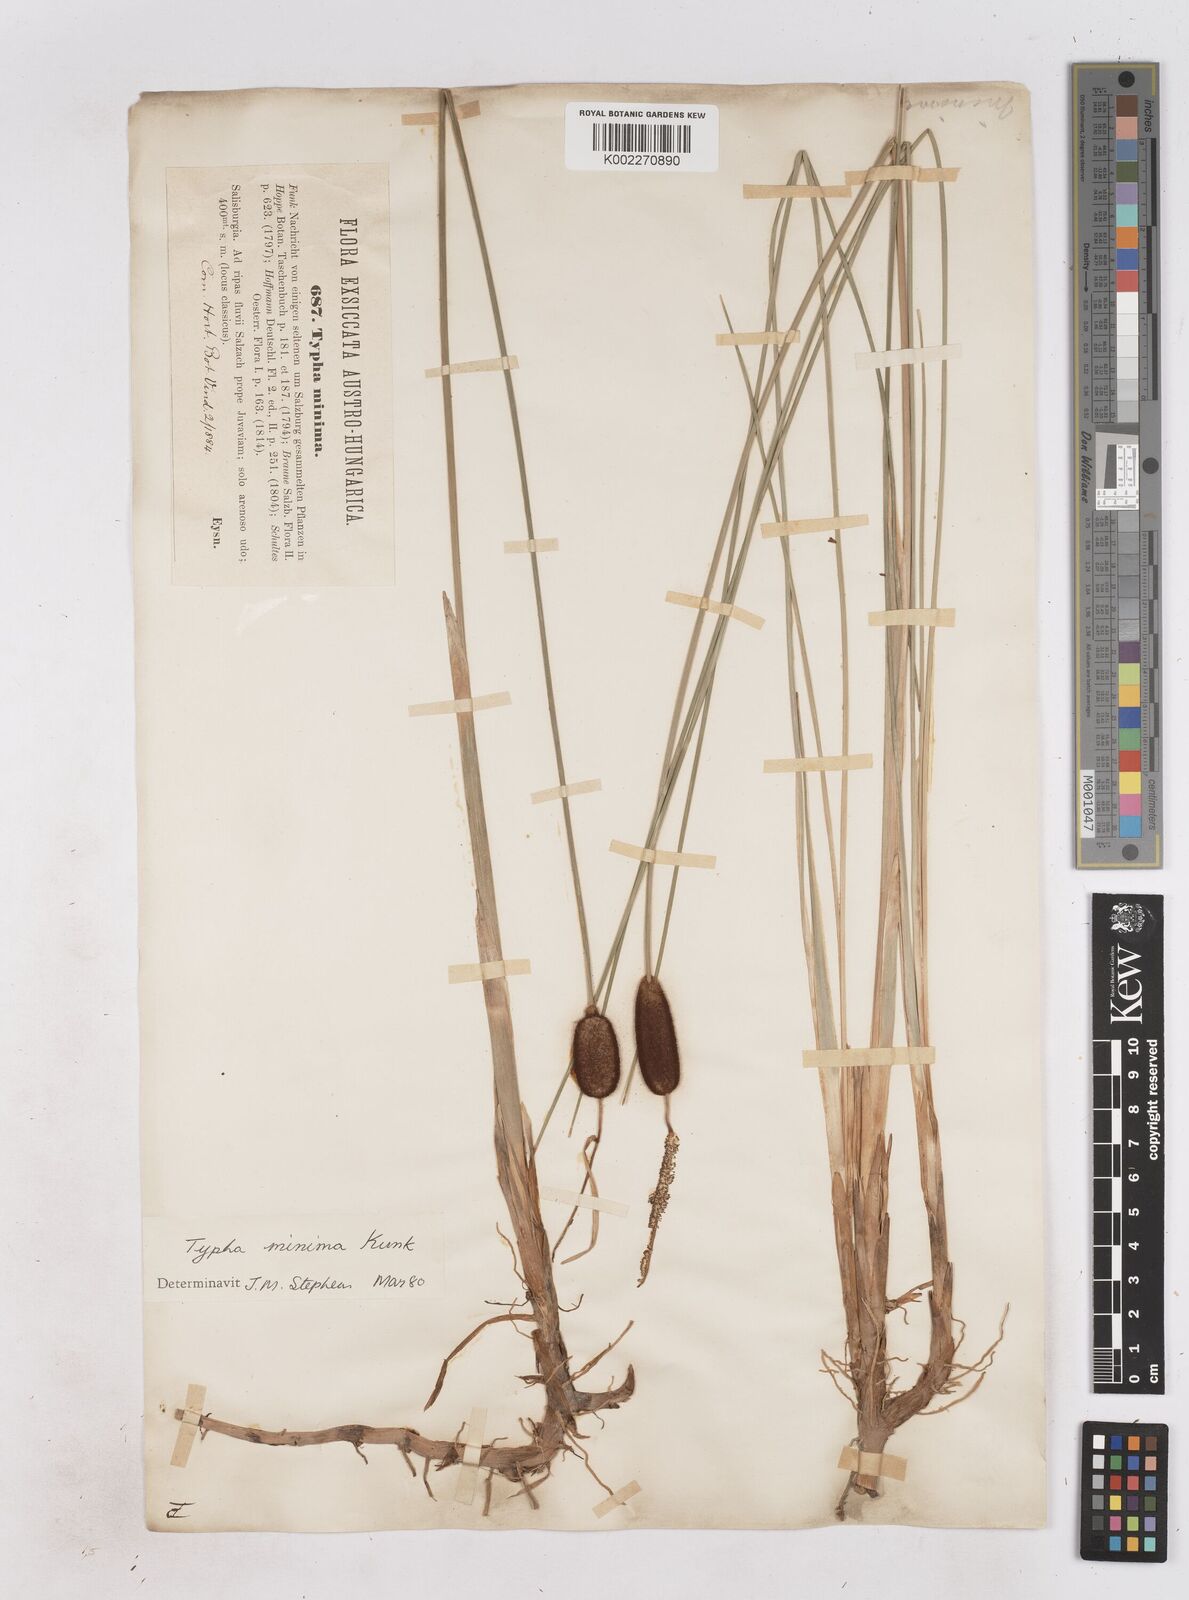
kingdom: Plantae
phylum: Tracheophyta
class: Liliopsida
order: Poales
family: Typhaceae
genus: Typha
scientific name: Typha minima
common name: Dwarf bulrush
